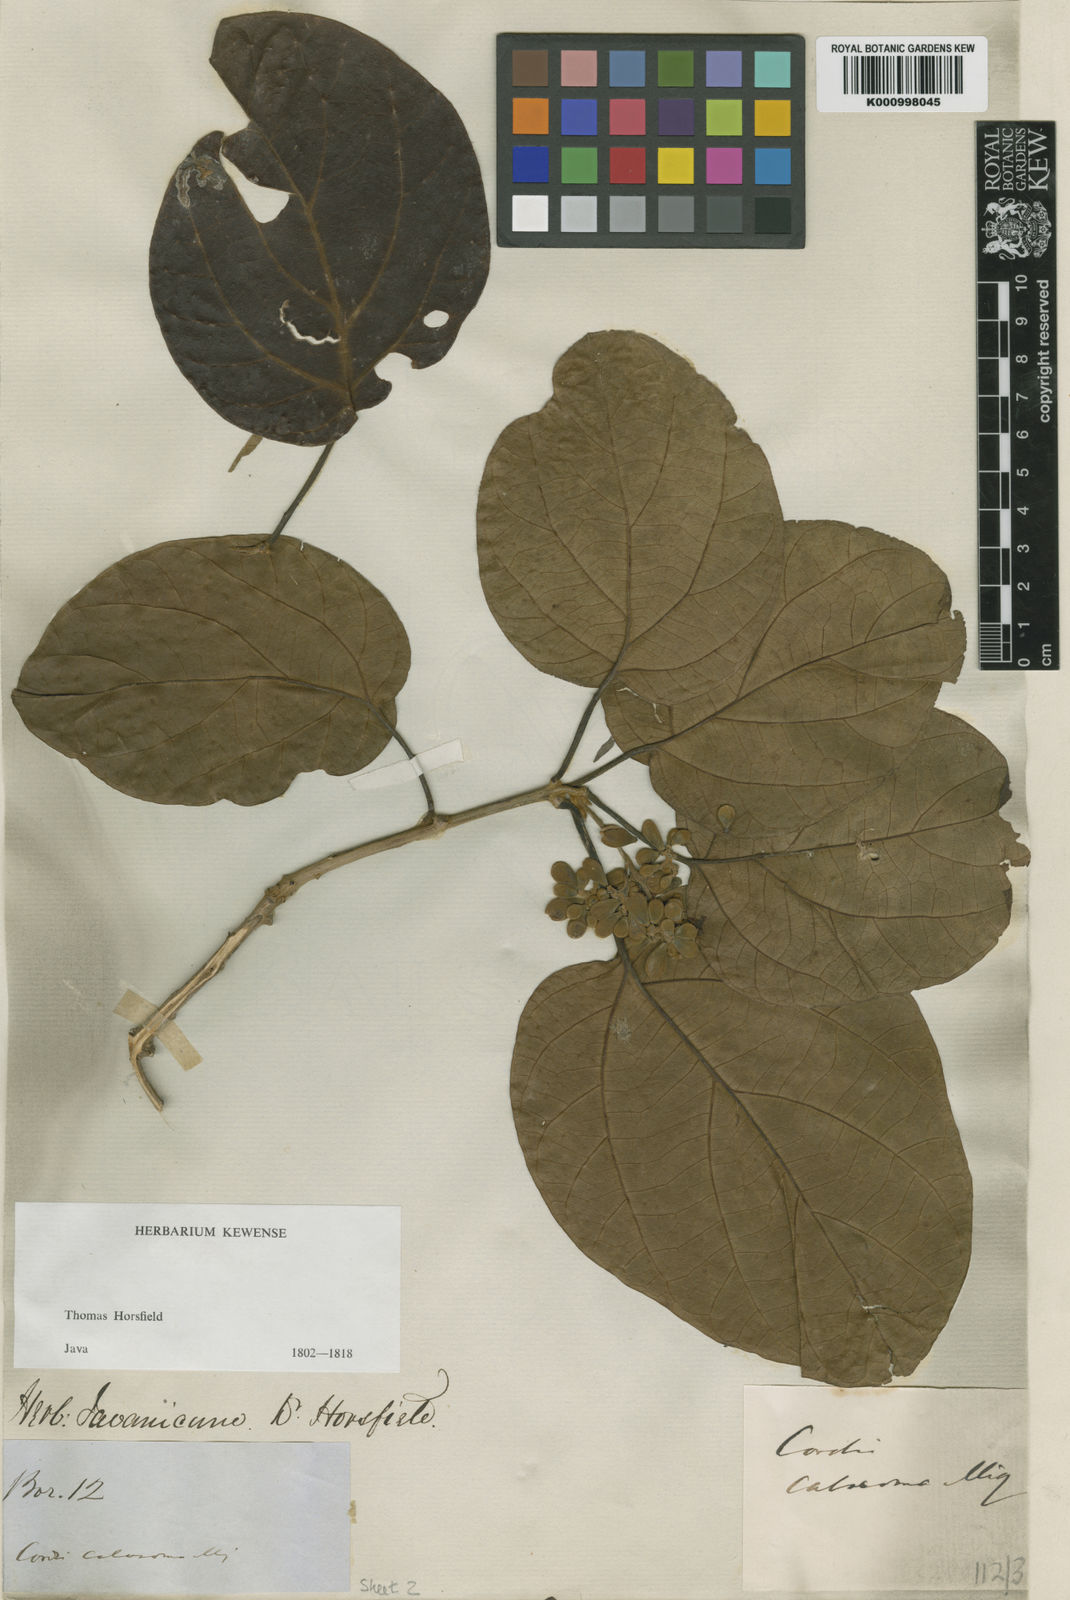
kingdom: Plantae
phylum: Tracheophyta
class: Magnoliopsida
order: Boraginales
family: Cordiaceae
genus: Cordia
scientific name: Cordia bantamensis
